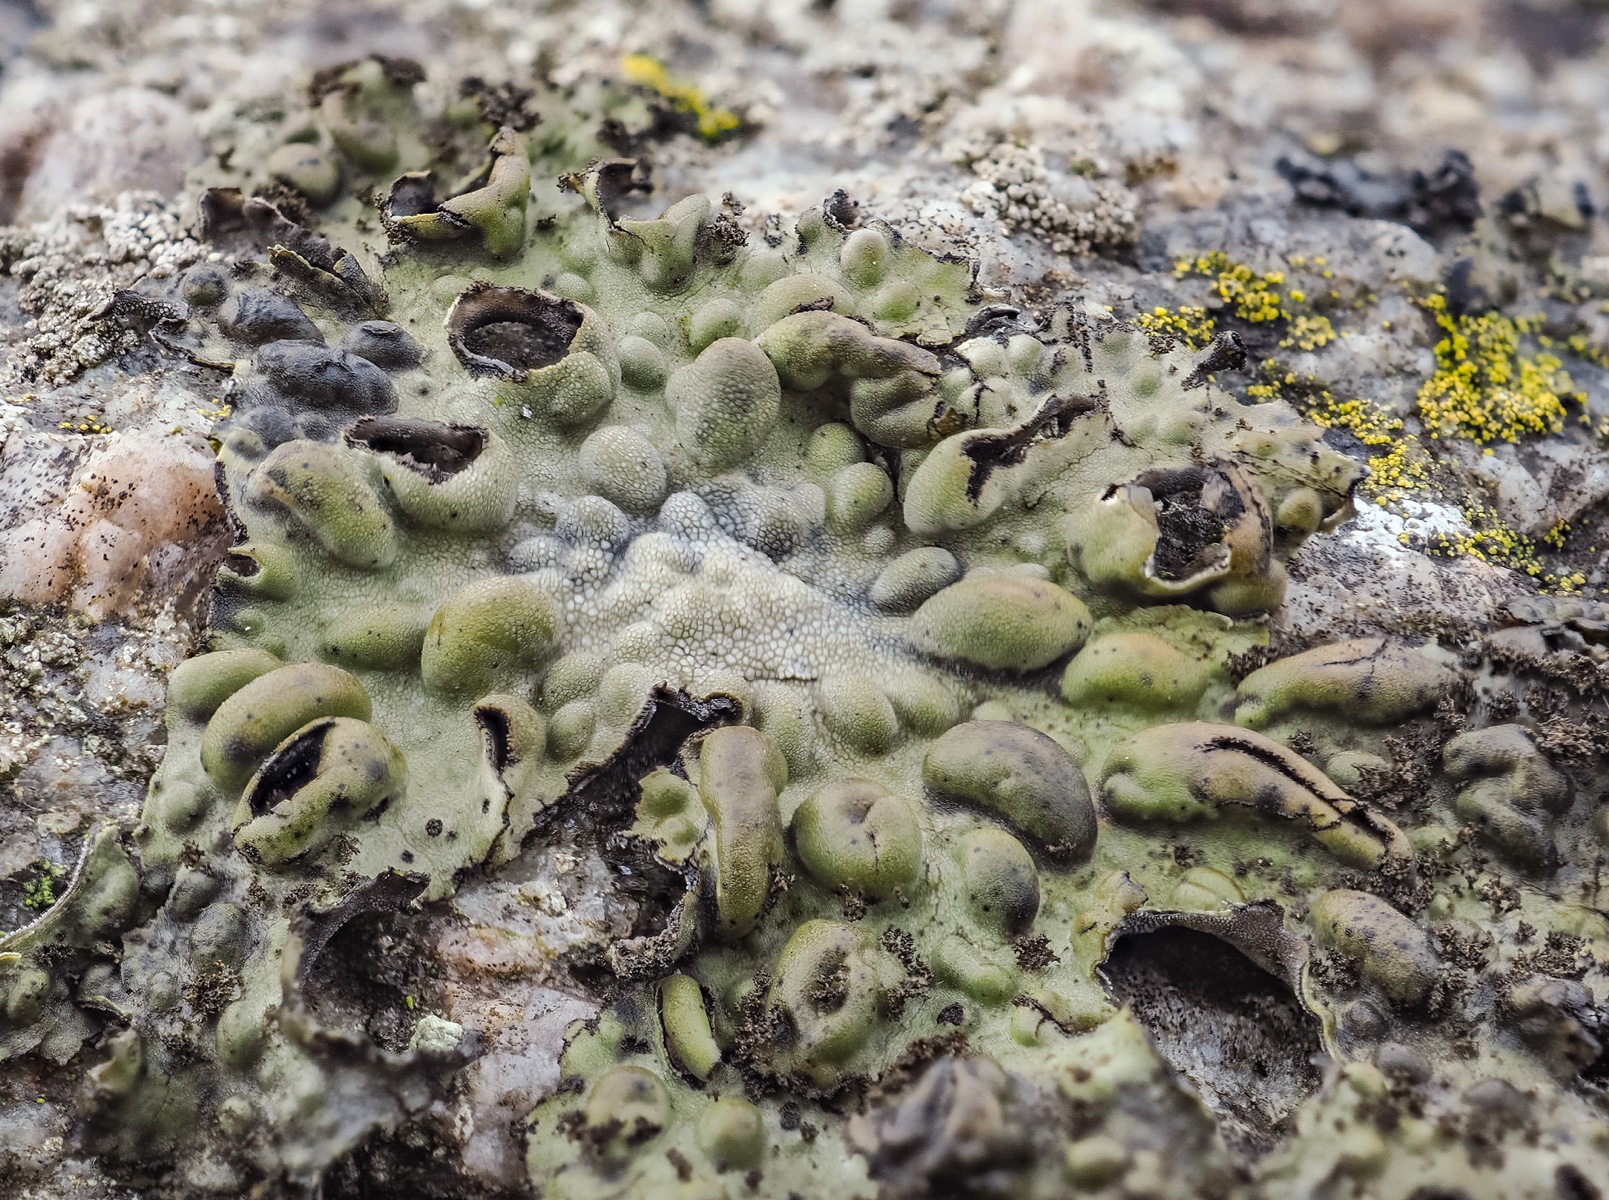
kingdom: Fungi
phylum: Ascomycota
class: Lecanoromycetes
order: Umbilicariales
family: Umbilicariaceae
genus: Lasallia
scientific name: Lasallia pustulata
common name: buklet navlelav
